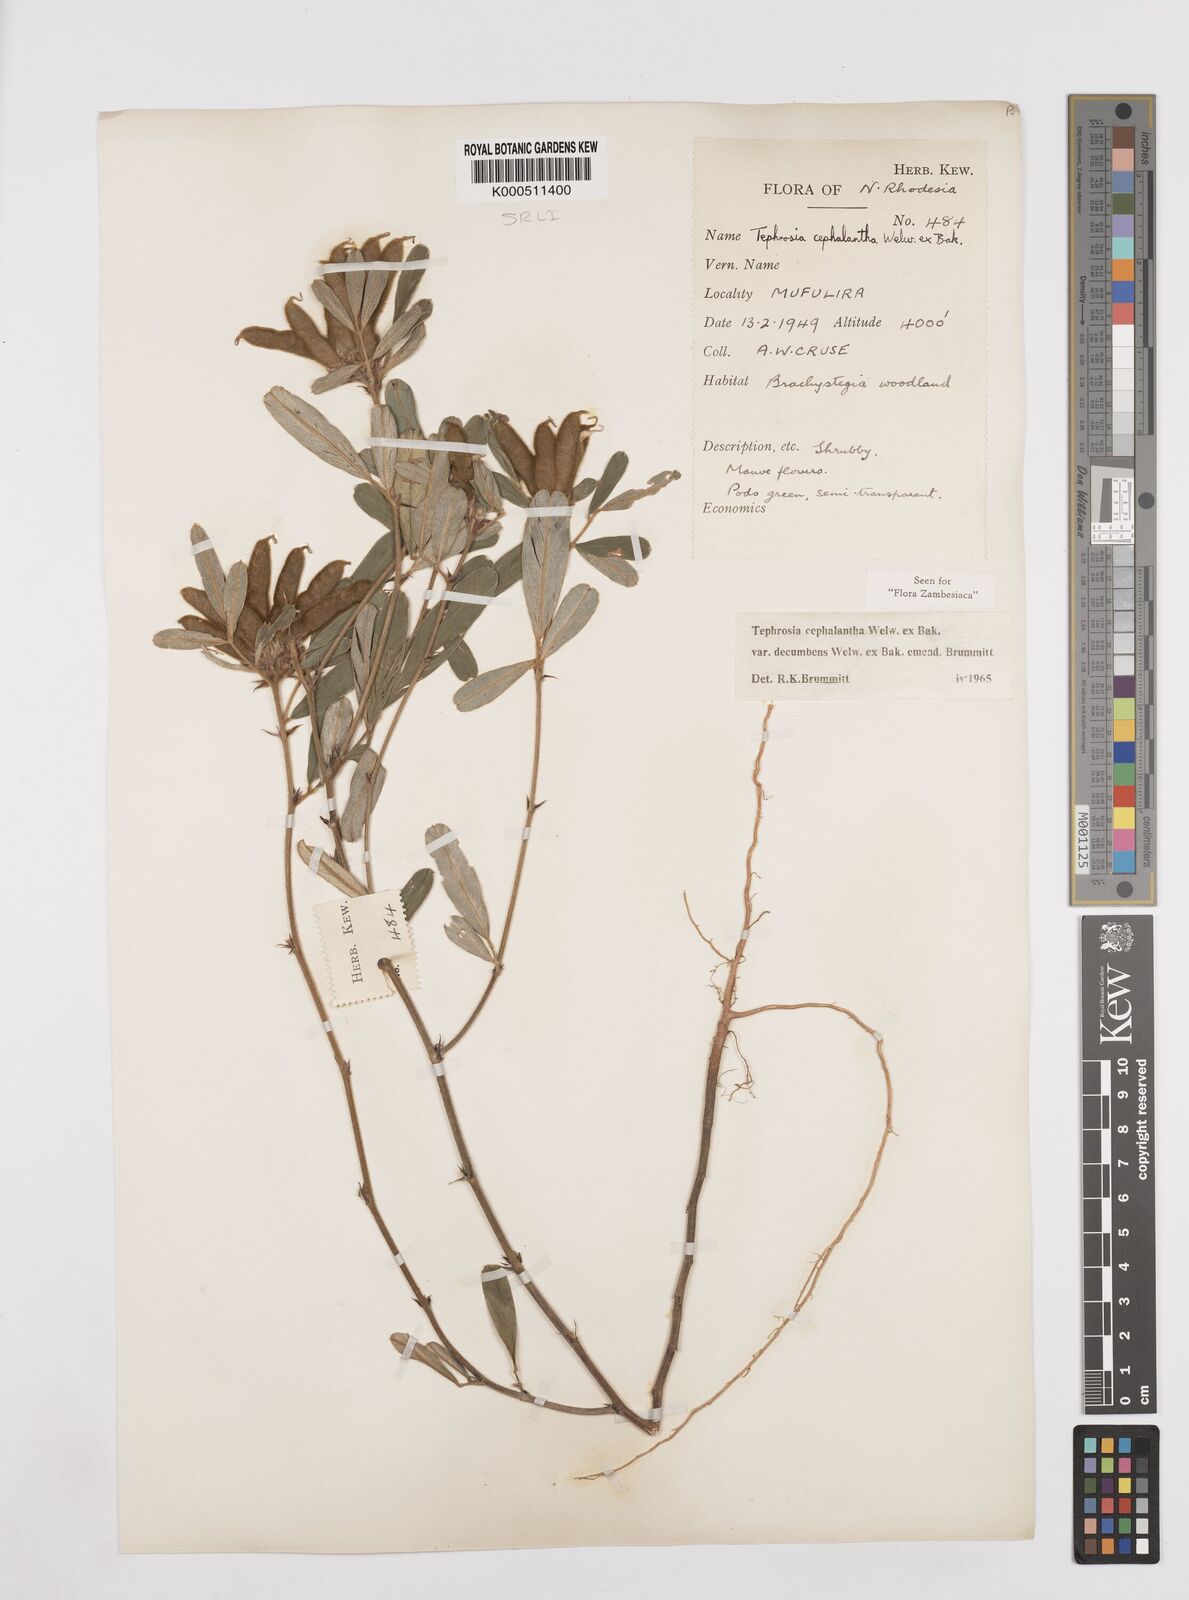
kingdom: Plantae
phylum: Tracheophyta
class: Magnoliopsida
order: Fabales
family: Fabaceae
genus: Tephrosia
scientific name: Tephrosia
